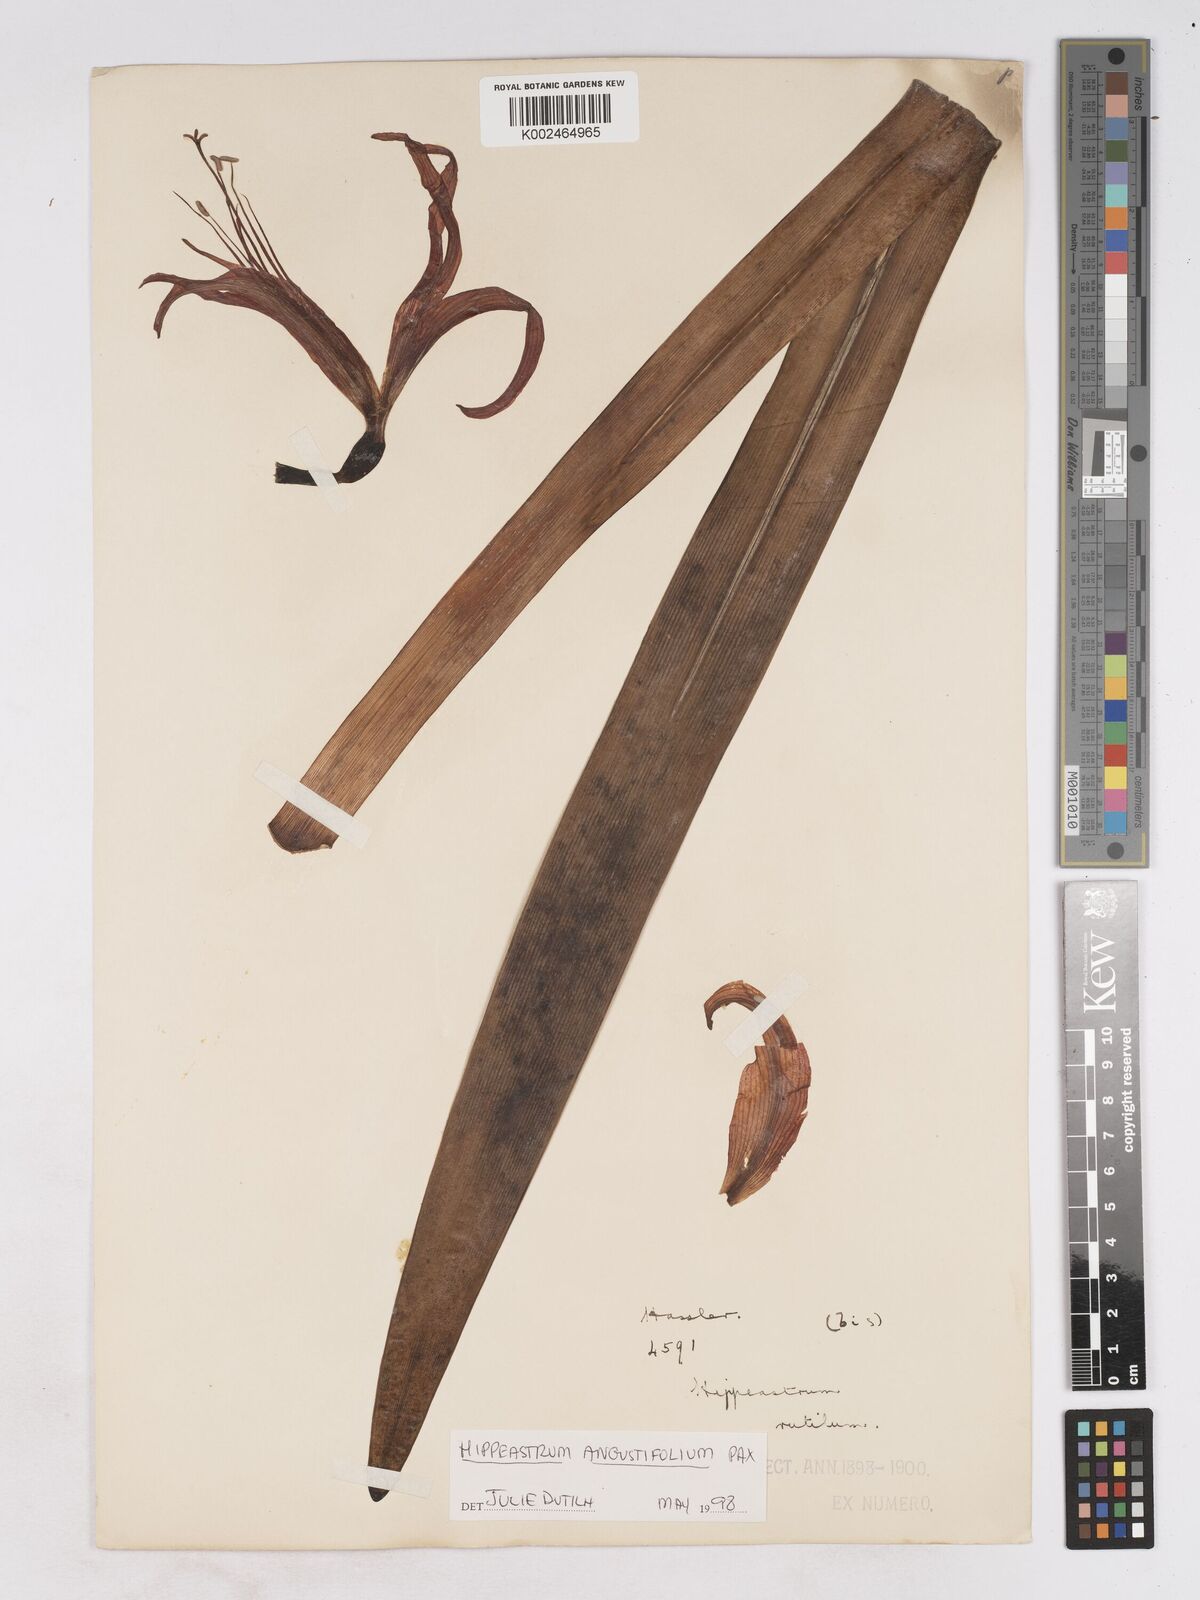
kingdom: Plantae
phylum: Tracheophyta
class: Liliopsida
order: Asparagales
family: Amaryllidaceae
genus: Hippeastrum
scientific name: Hippeastrum angustifolium
